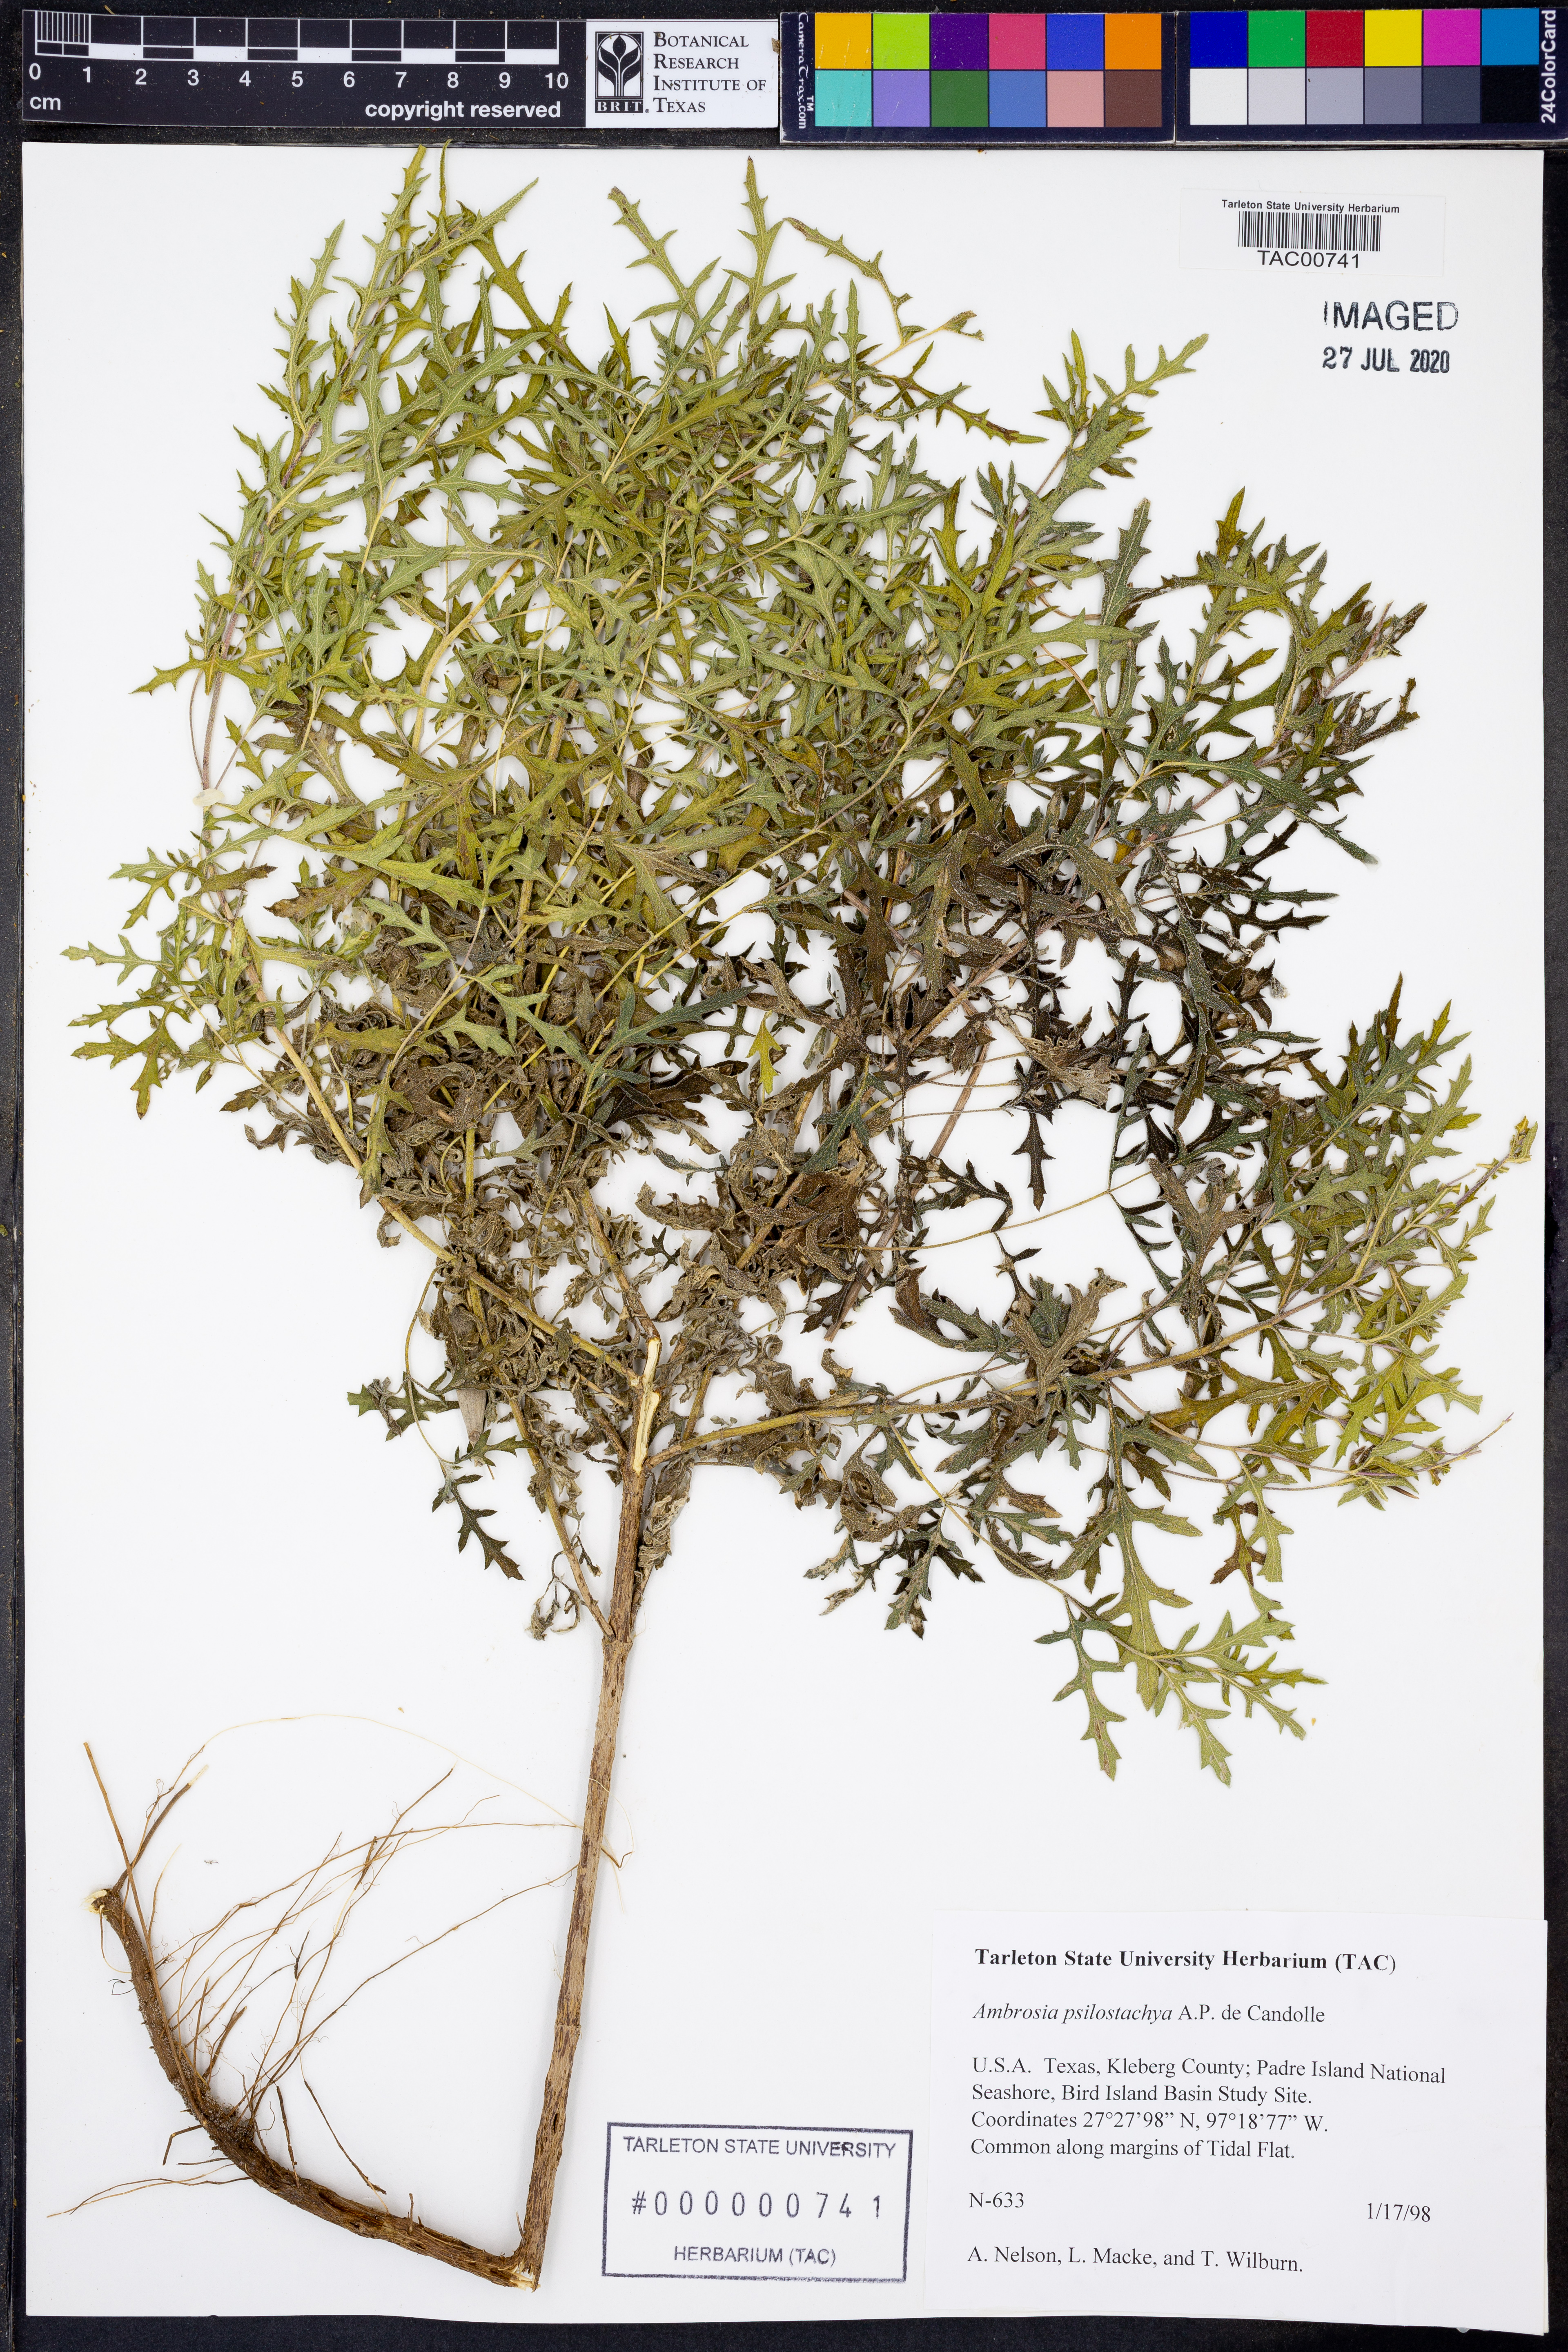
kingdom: Plantae
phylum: Tracheophyta
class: Magnoliopsida
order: Asterales
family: Asteraceae
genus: Ambrosia
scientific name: Ambrosia psilostachya
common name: Perennial ragweed
